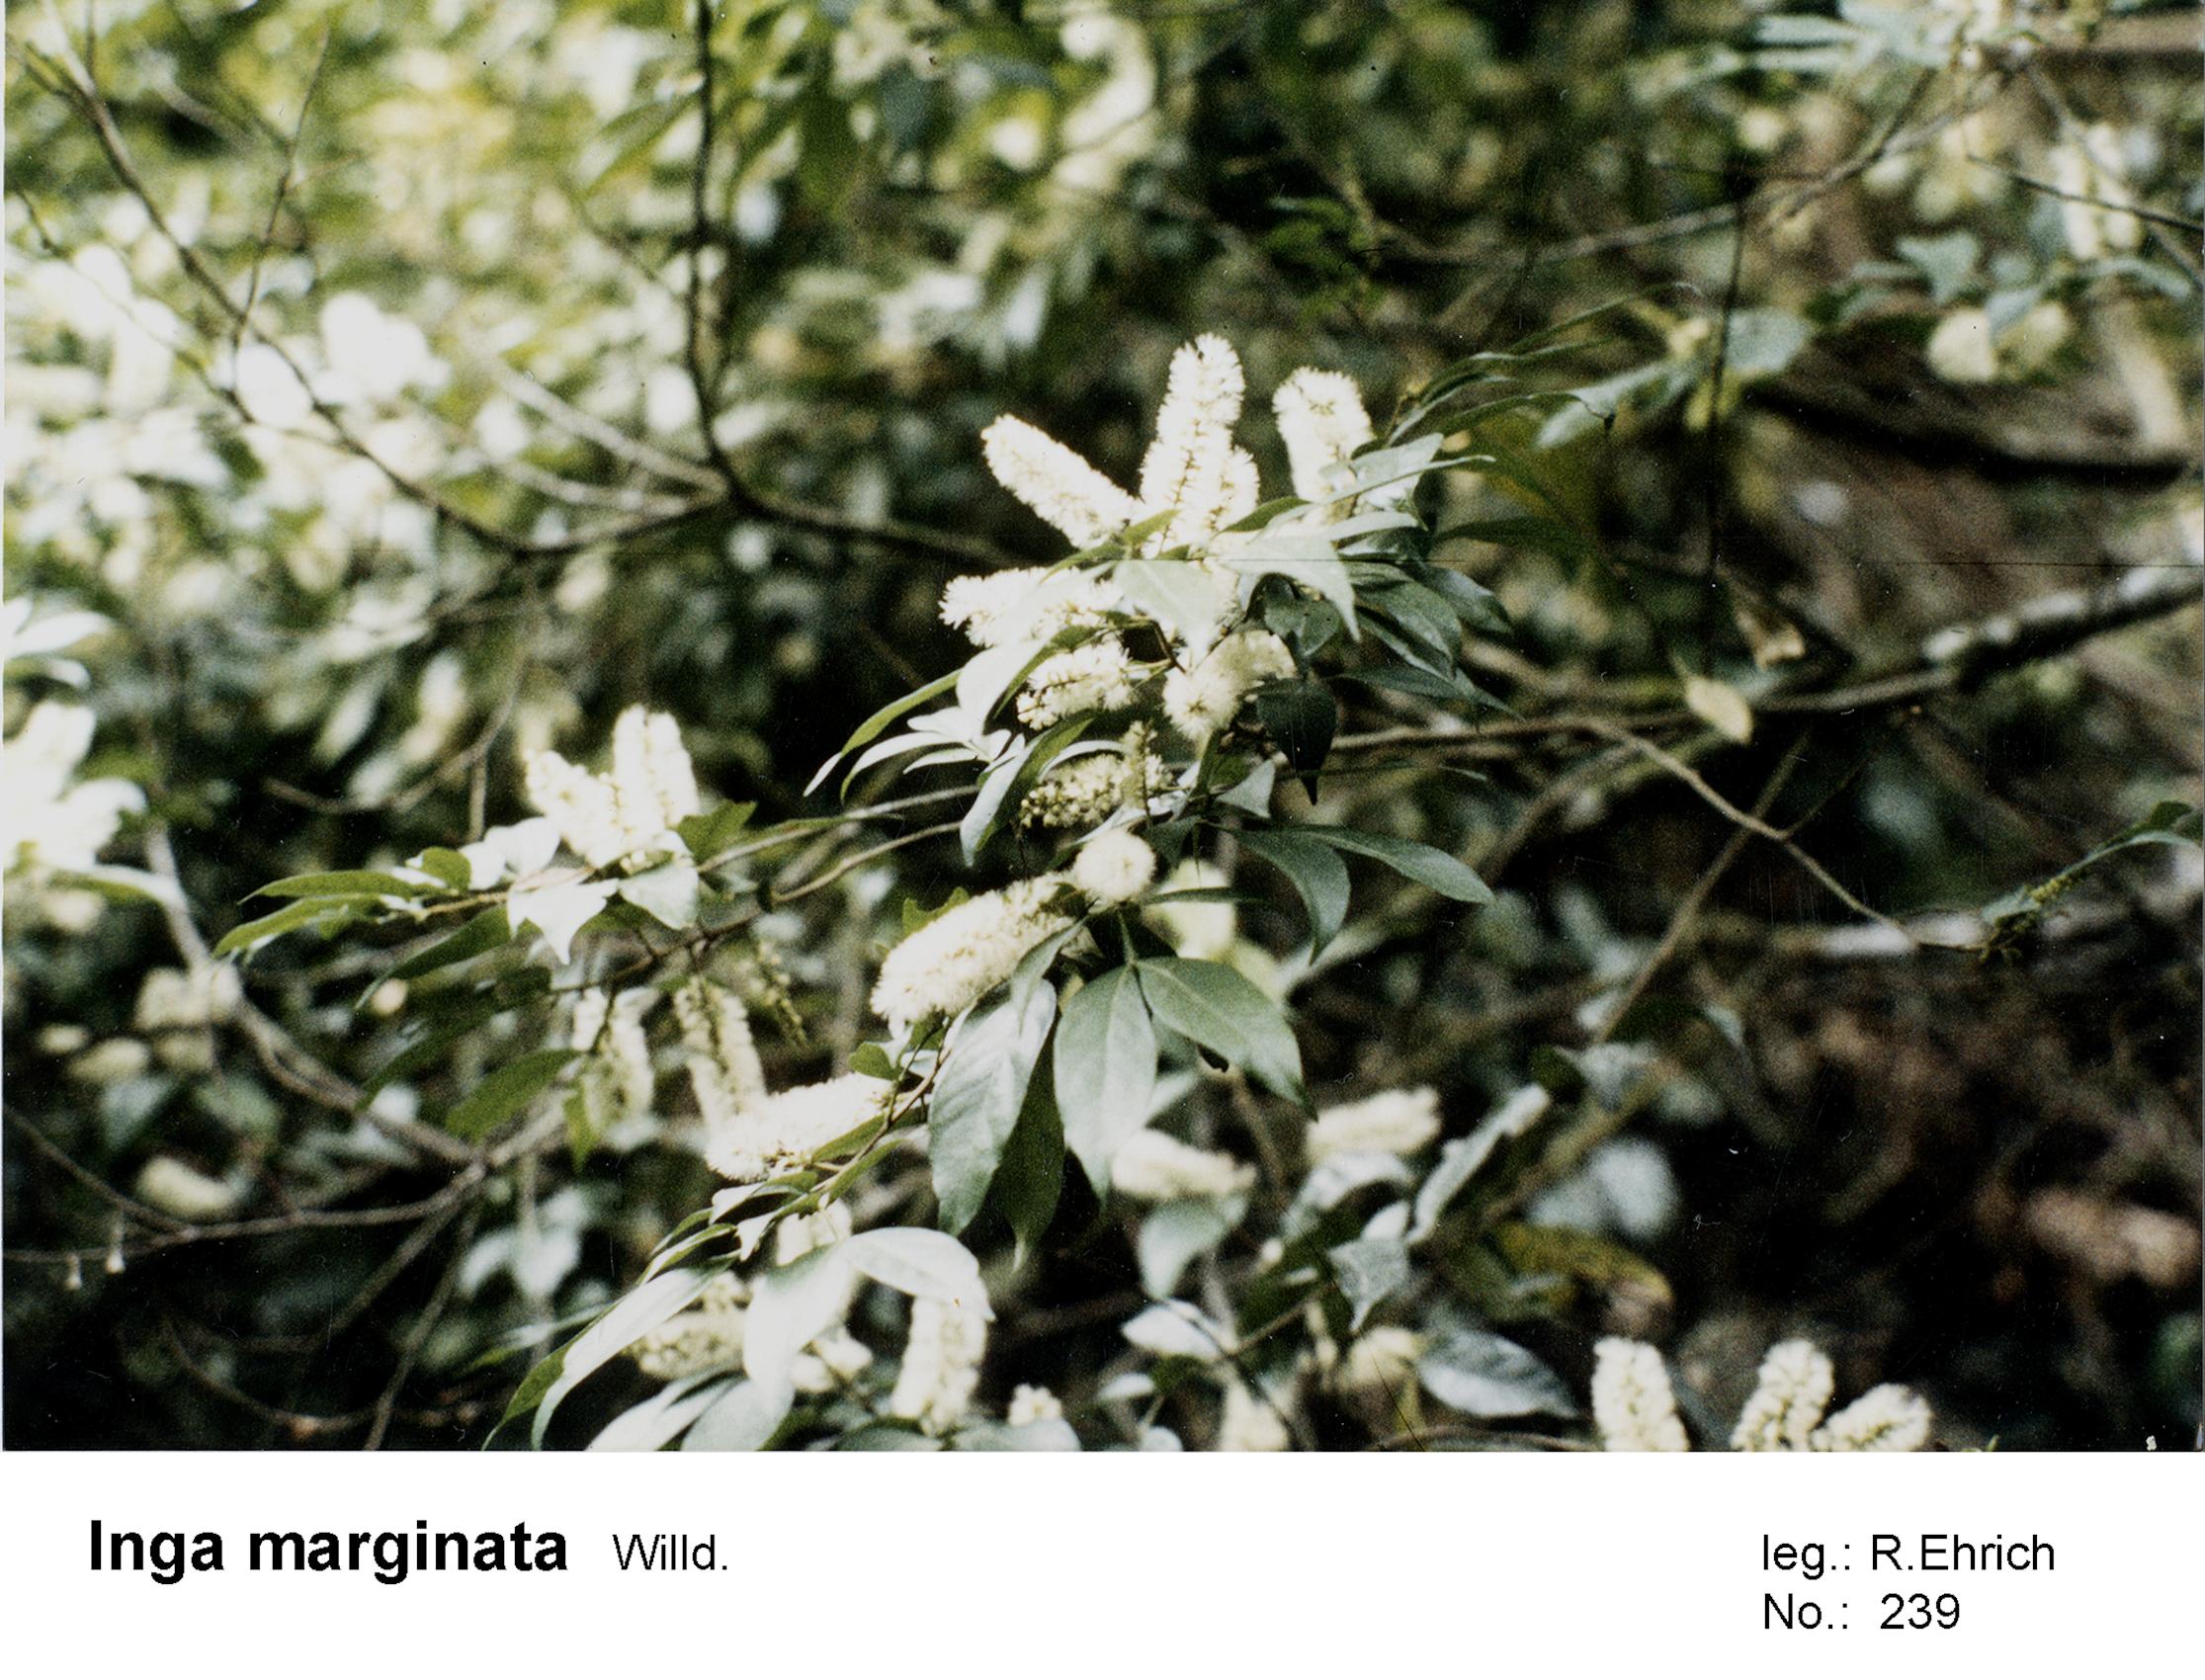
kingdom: Plantae
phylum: Tracheophyta
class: Magnoliopsida
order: Fabales
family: Fabaceae
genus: Inga
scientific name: Inga marginata
